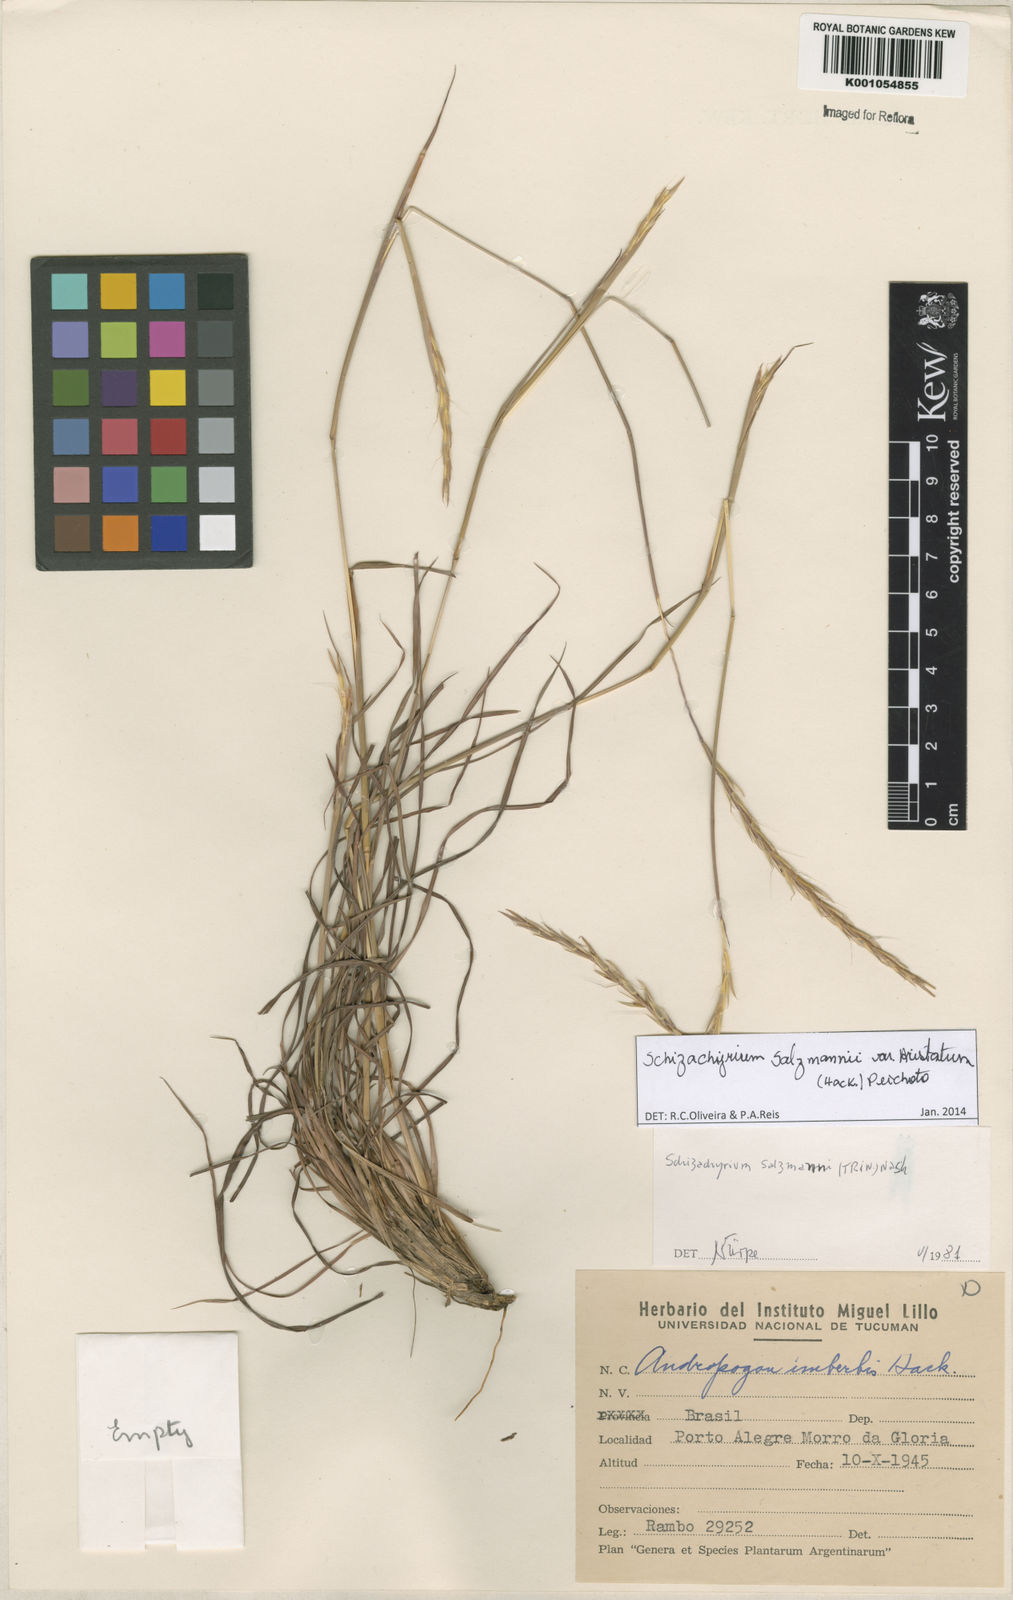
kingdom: Plantae
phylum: Tracheophyta
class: Liliopsida
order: Poales
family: Poaceae
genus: Andropogon
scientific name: Andropogon salzmannii
